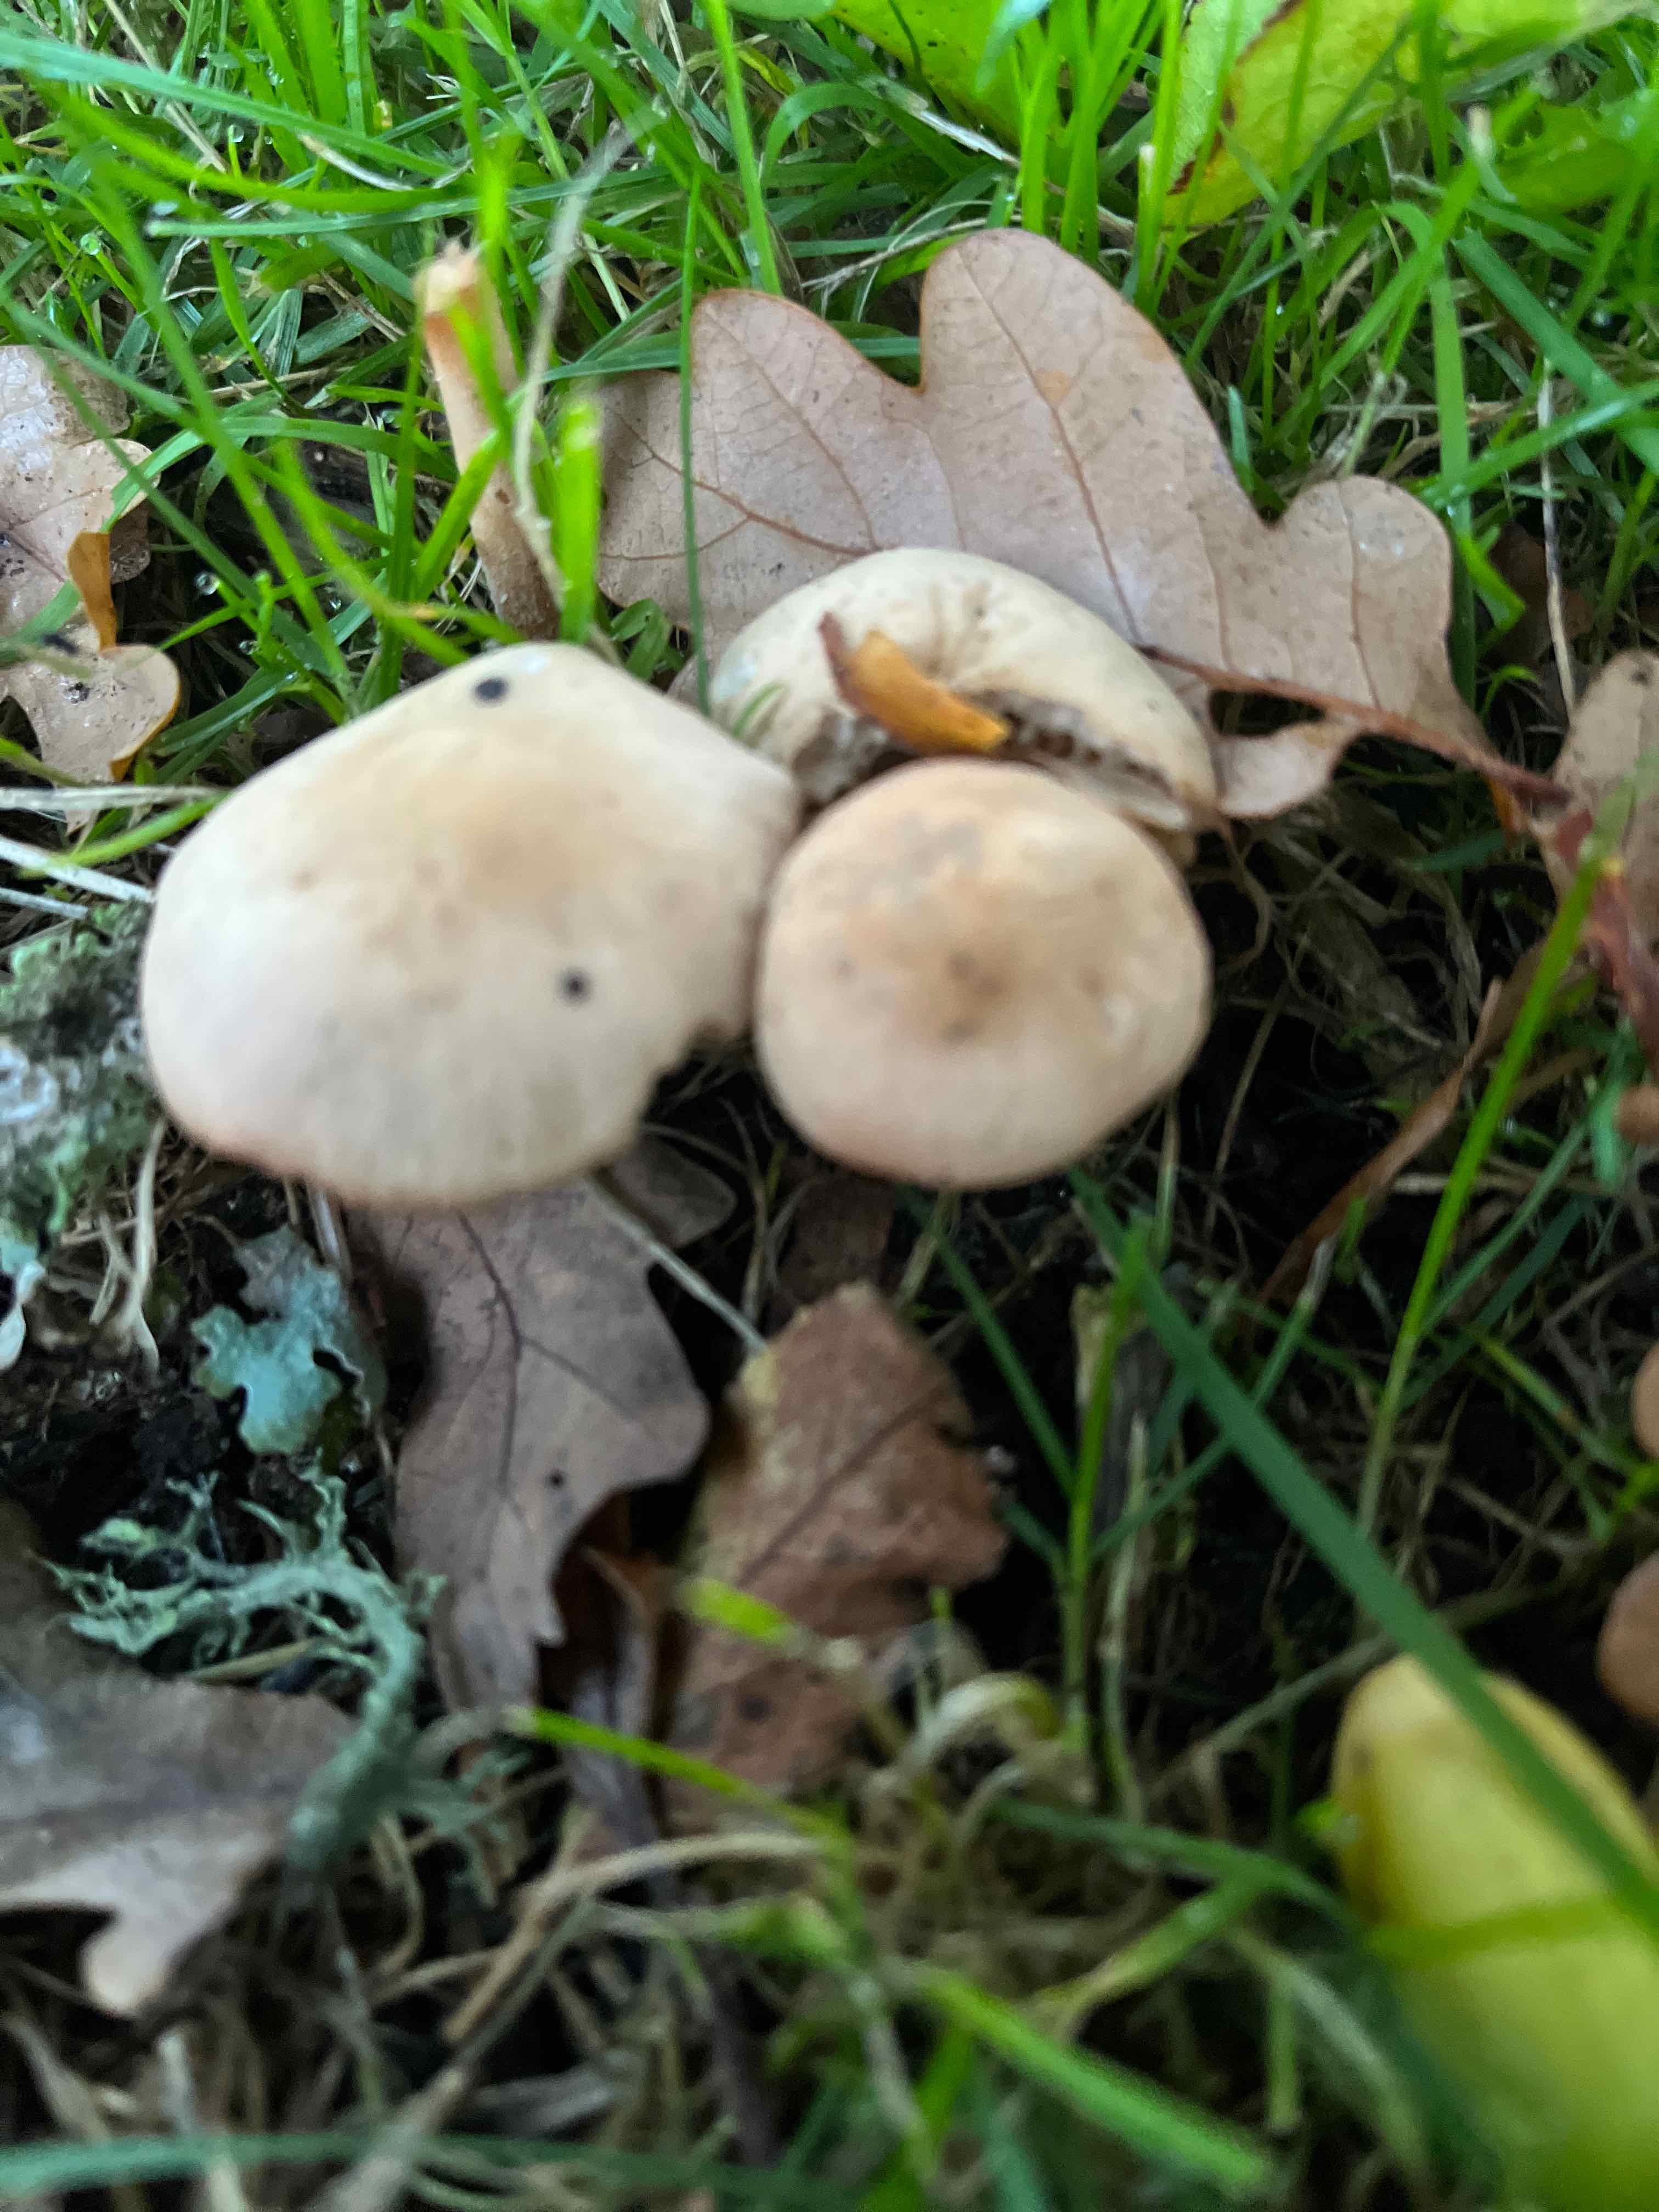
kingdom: Fungi
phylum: Basidiomycota
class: Agaricomycetes
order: Agaricales
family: Marasmiaceae
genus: Marasmius
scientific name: Marasmius oreades
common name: elledans-bruskhat
